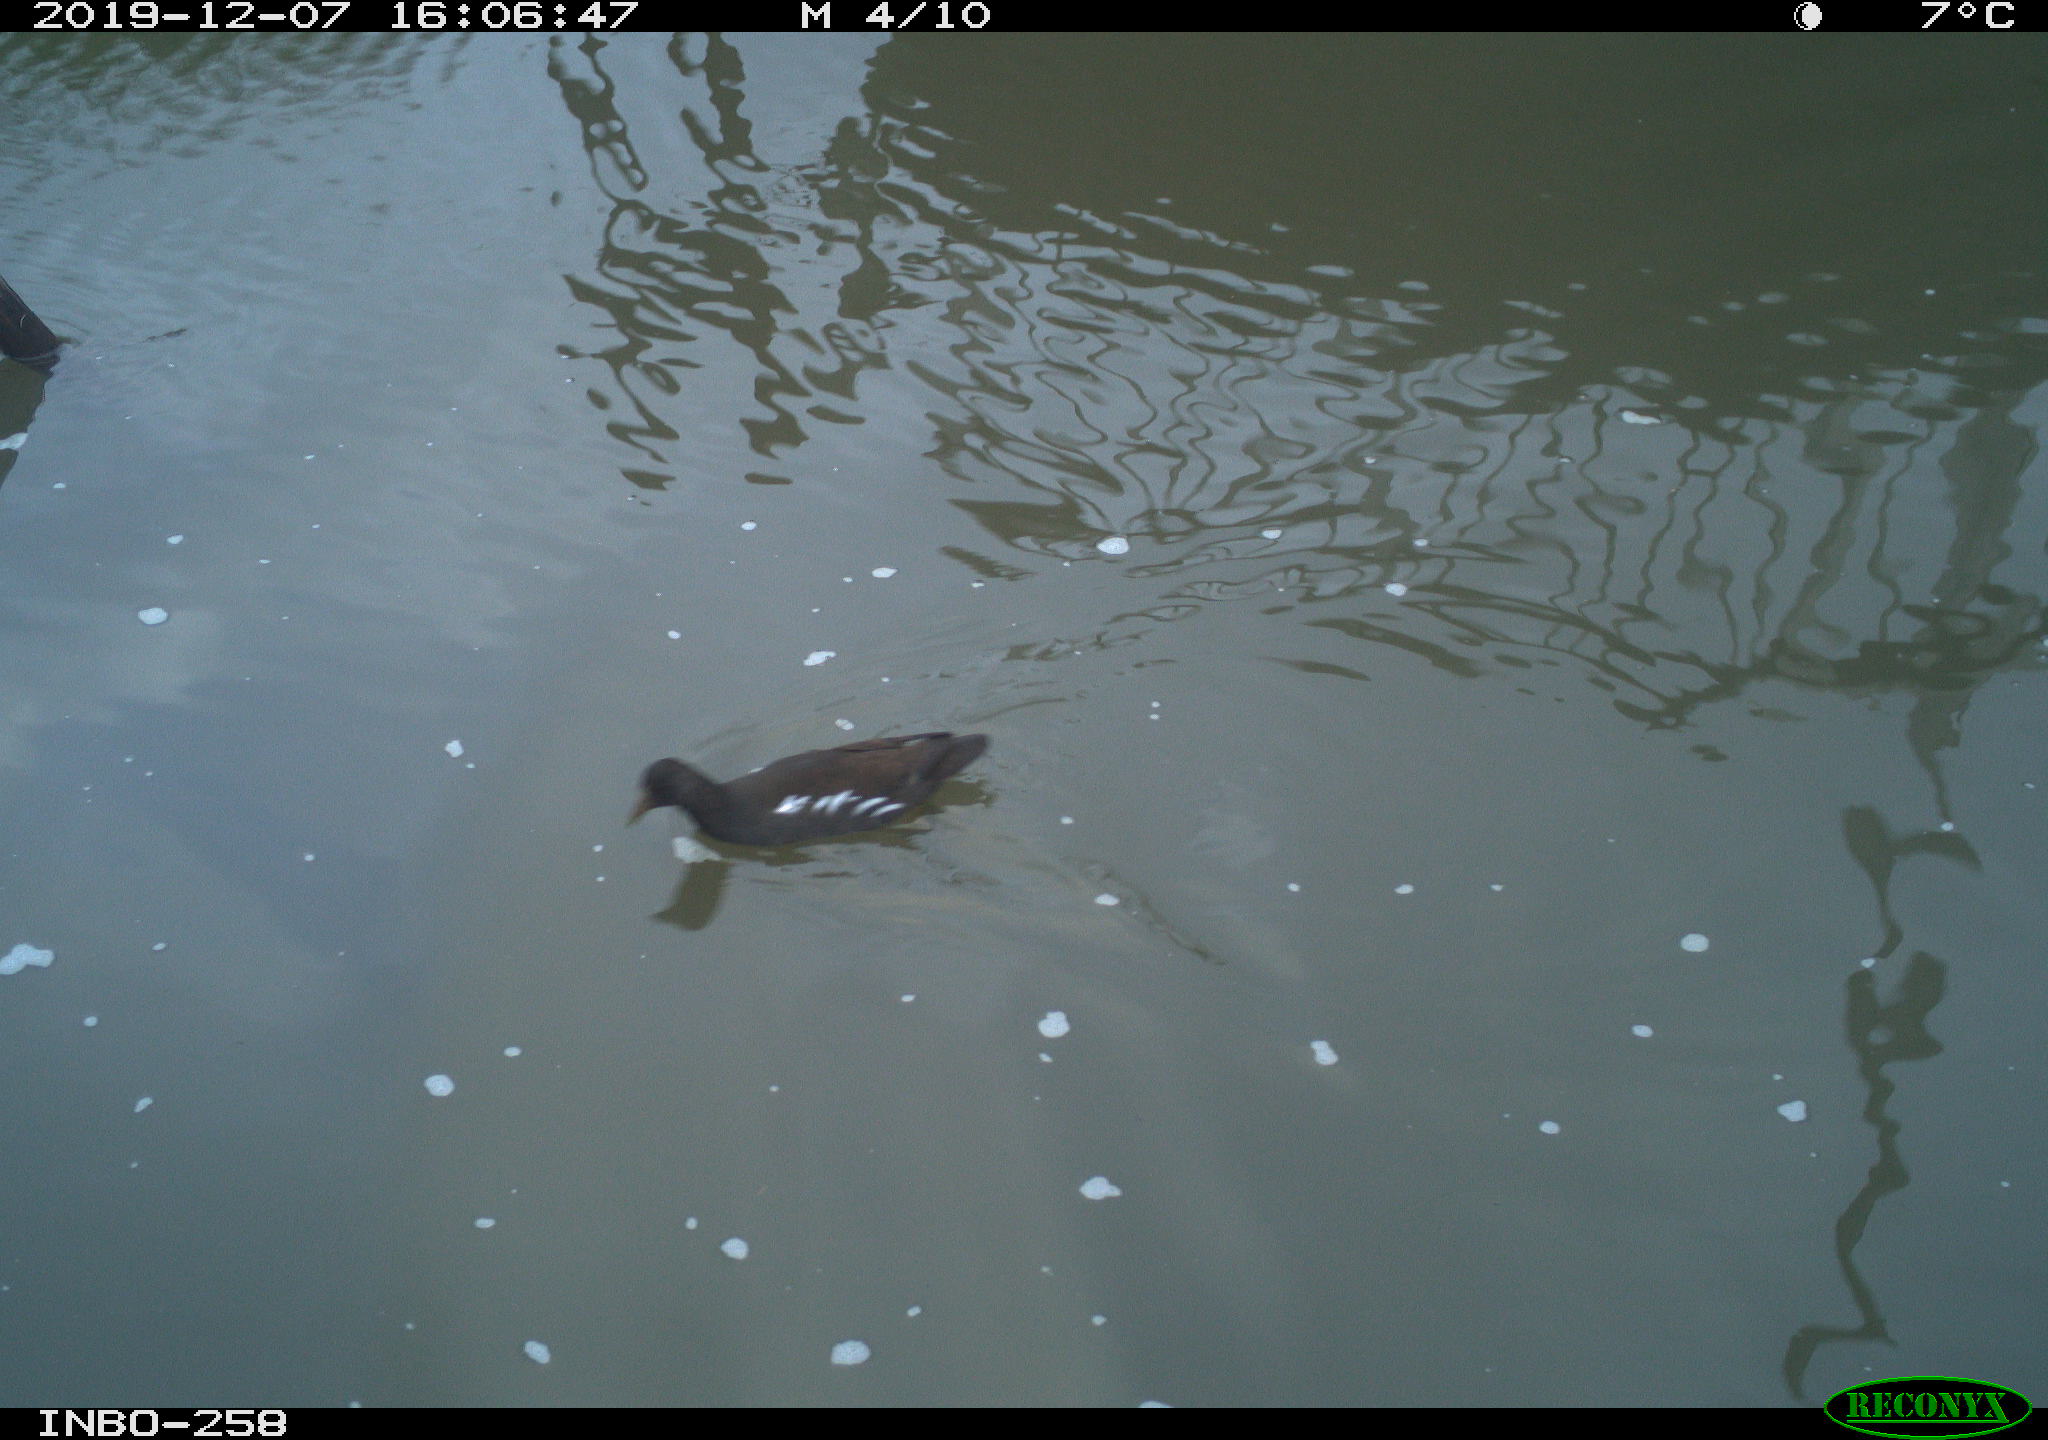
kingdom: Animalia
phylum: Chordata
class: Aves
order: Gruiformes
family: Rallidae
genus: Gallinula
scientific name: Gallinula chloropus
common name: Common moorhen
